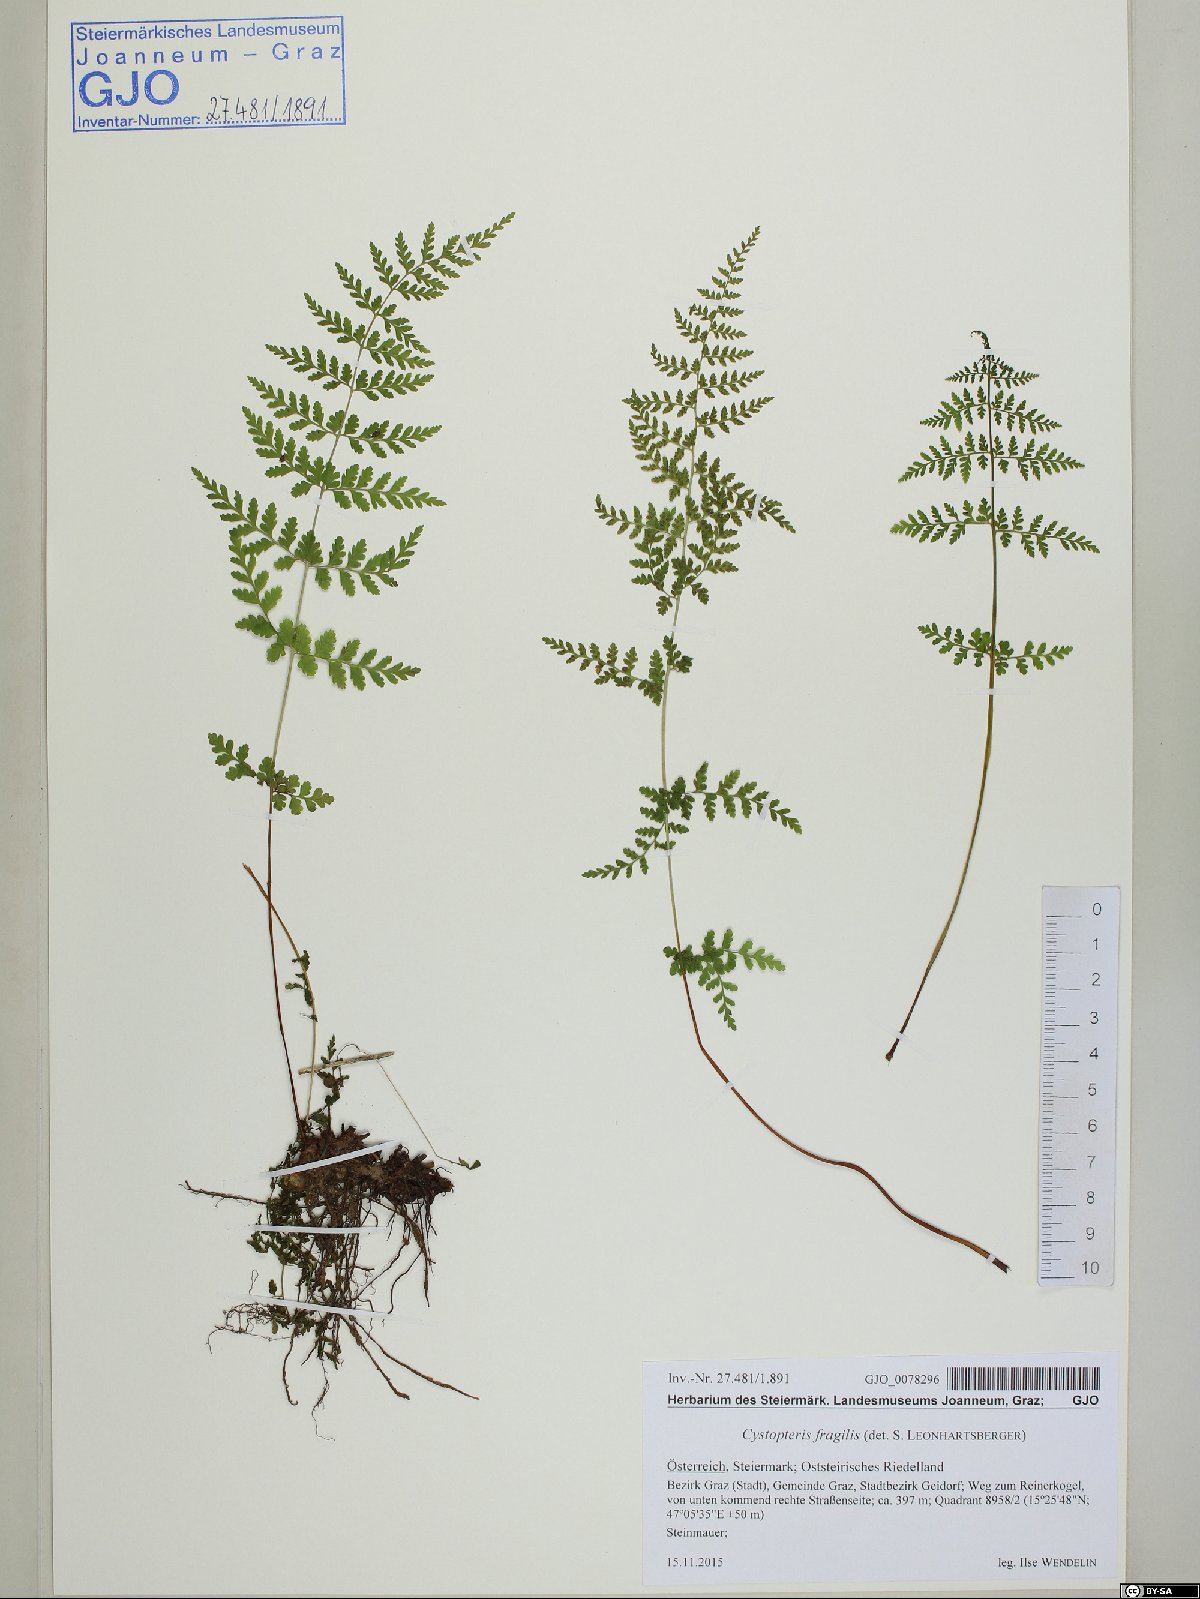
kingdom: Plantae
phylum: Tracheophyta
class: Polypodiopsida
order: Polypodiales
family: Cystopteridaceae
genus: Cystopteris
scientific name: Cystopteris fragilis
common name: Brittle bladder fern
